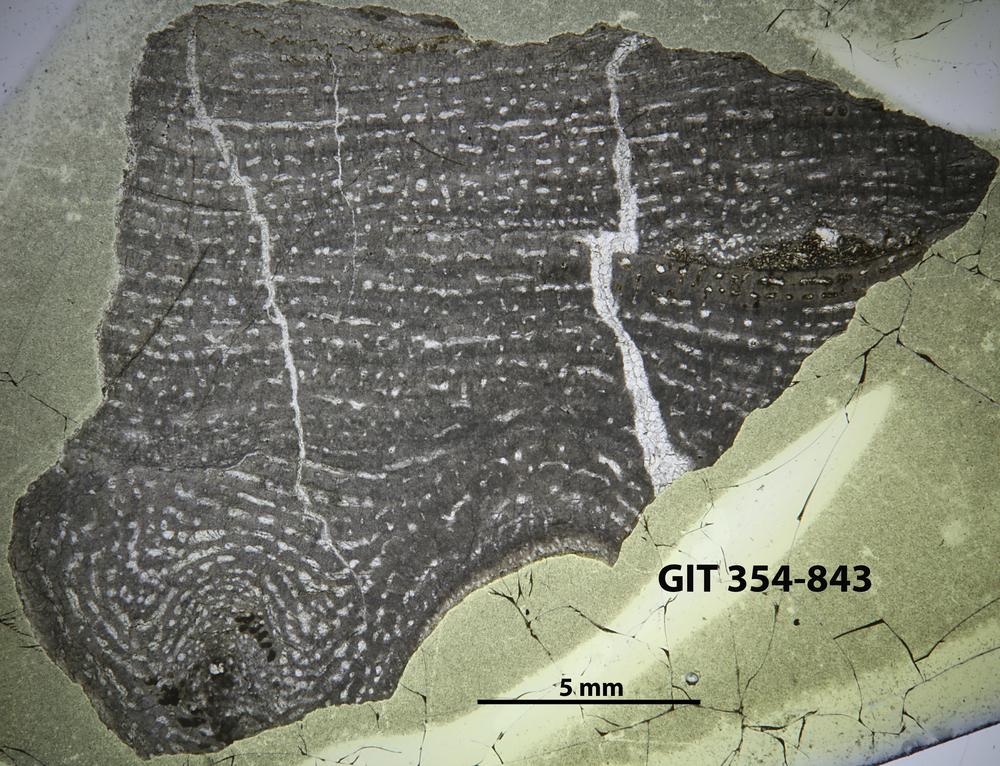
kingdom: Animalia
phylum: Porifera
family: Stromatoporidae
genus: Parallelostroma
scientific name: Parallelostroma
